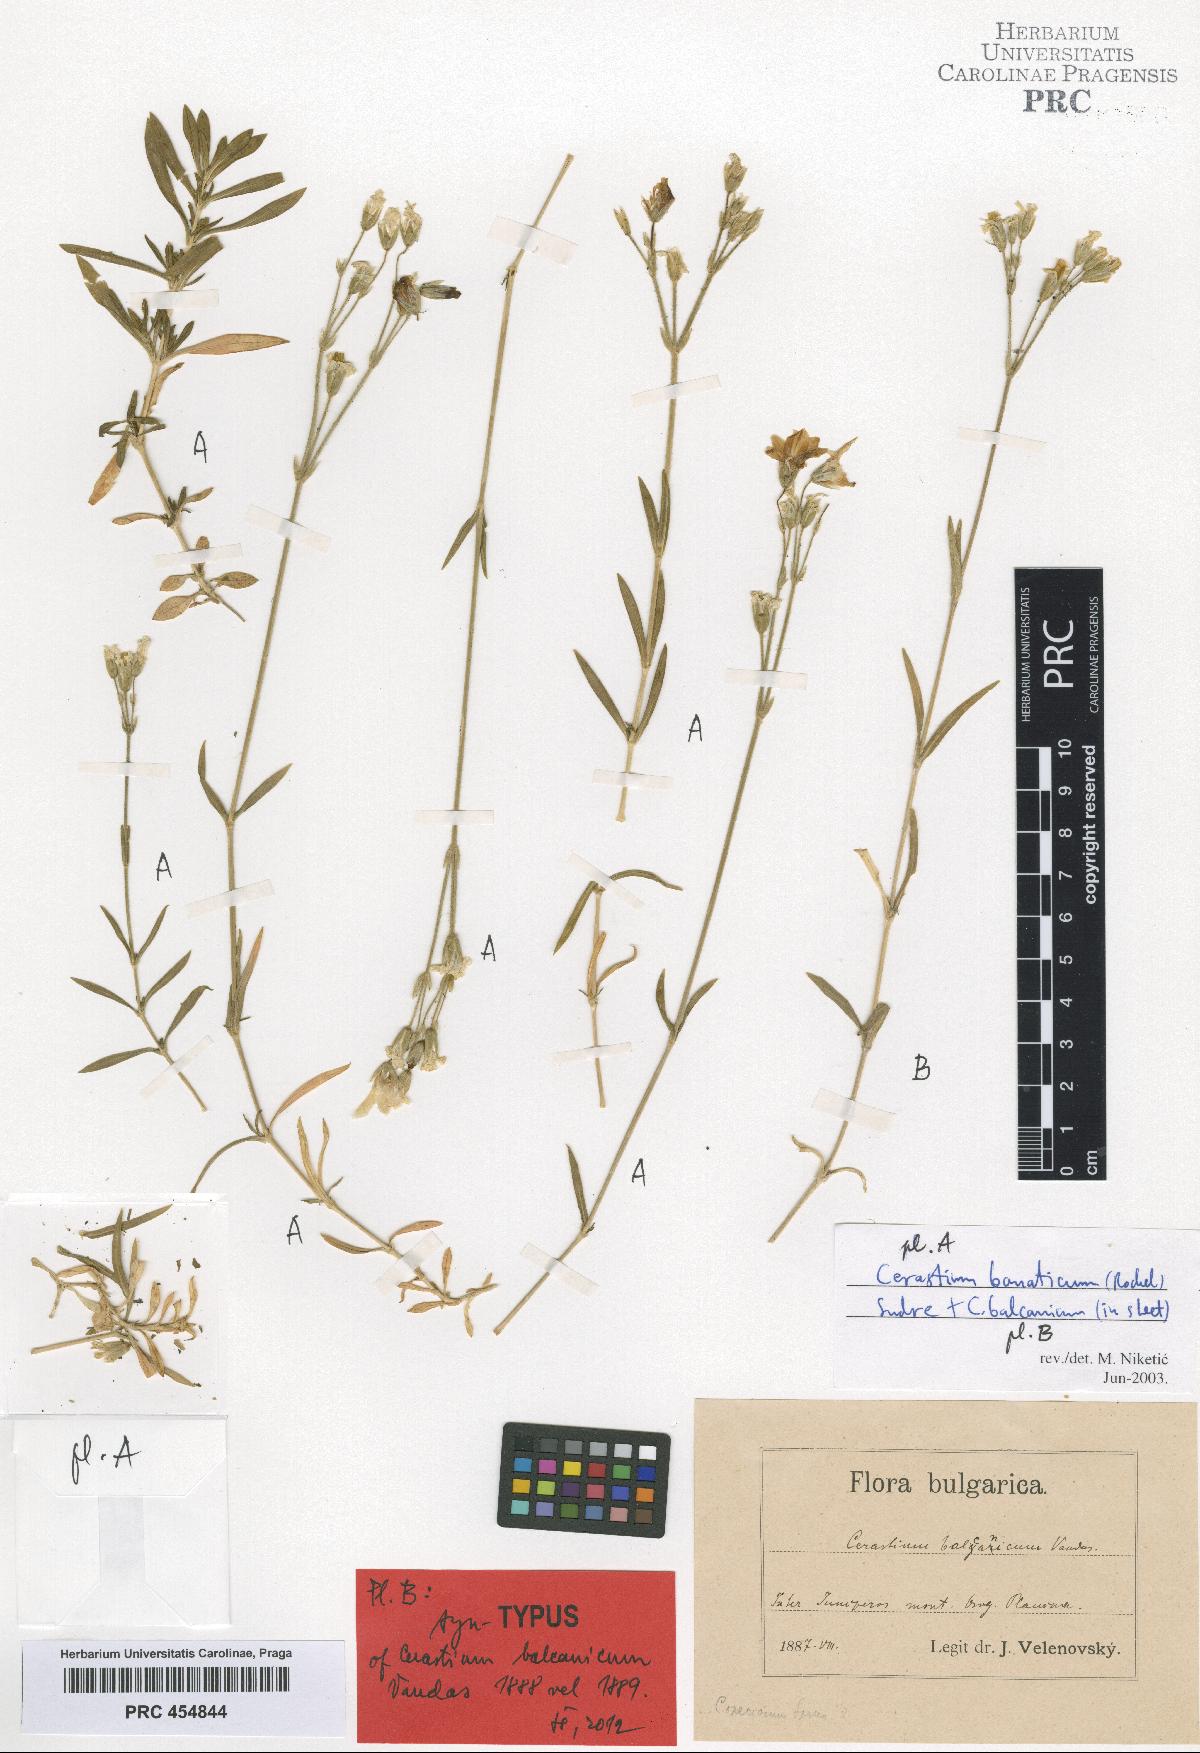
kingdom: Plantae
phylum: Tracheophyta
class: Magnoliopsida
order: Caryophyllales
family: Caryophyllaceae
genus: Cerastium
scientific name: Cerastium banaticum
